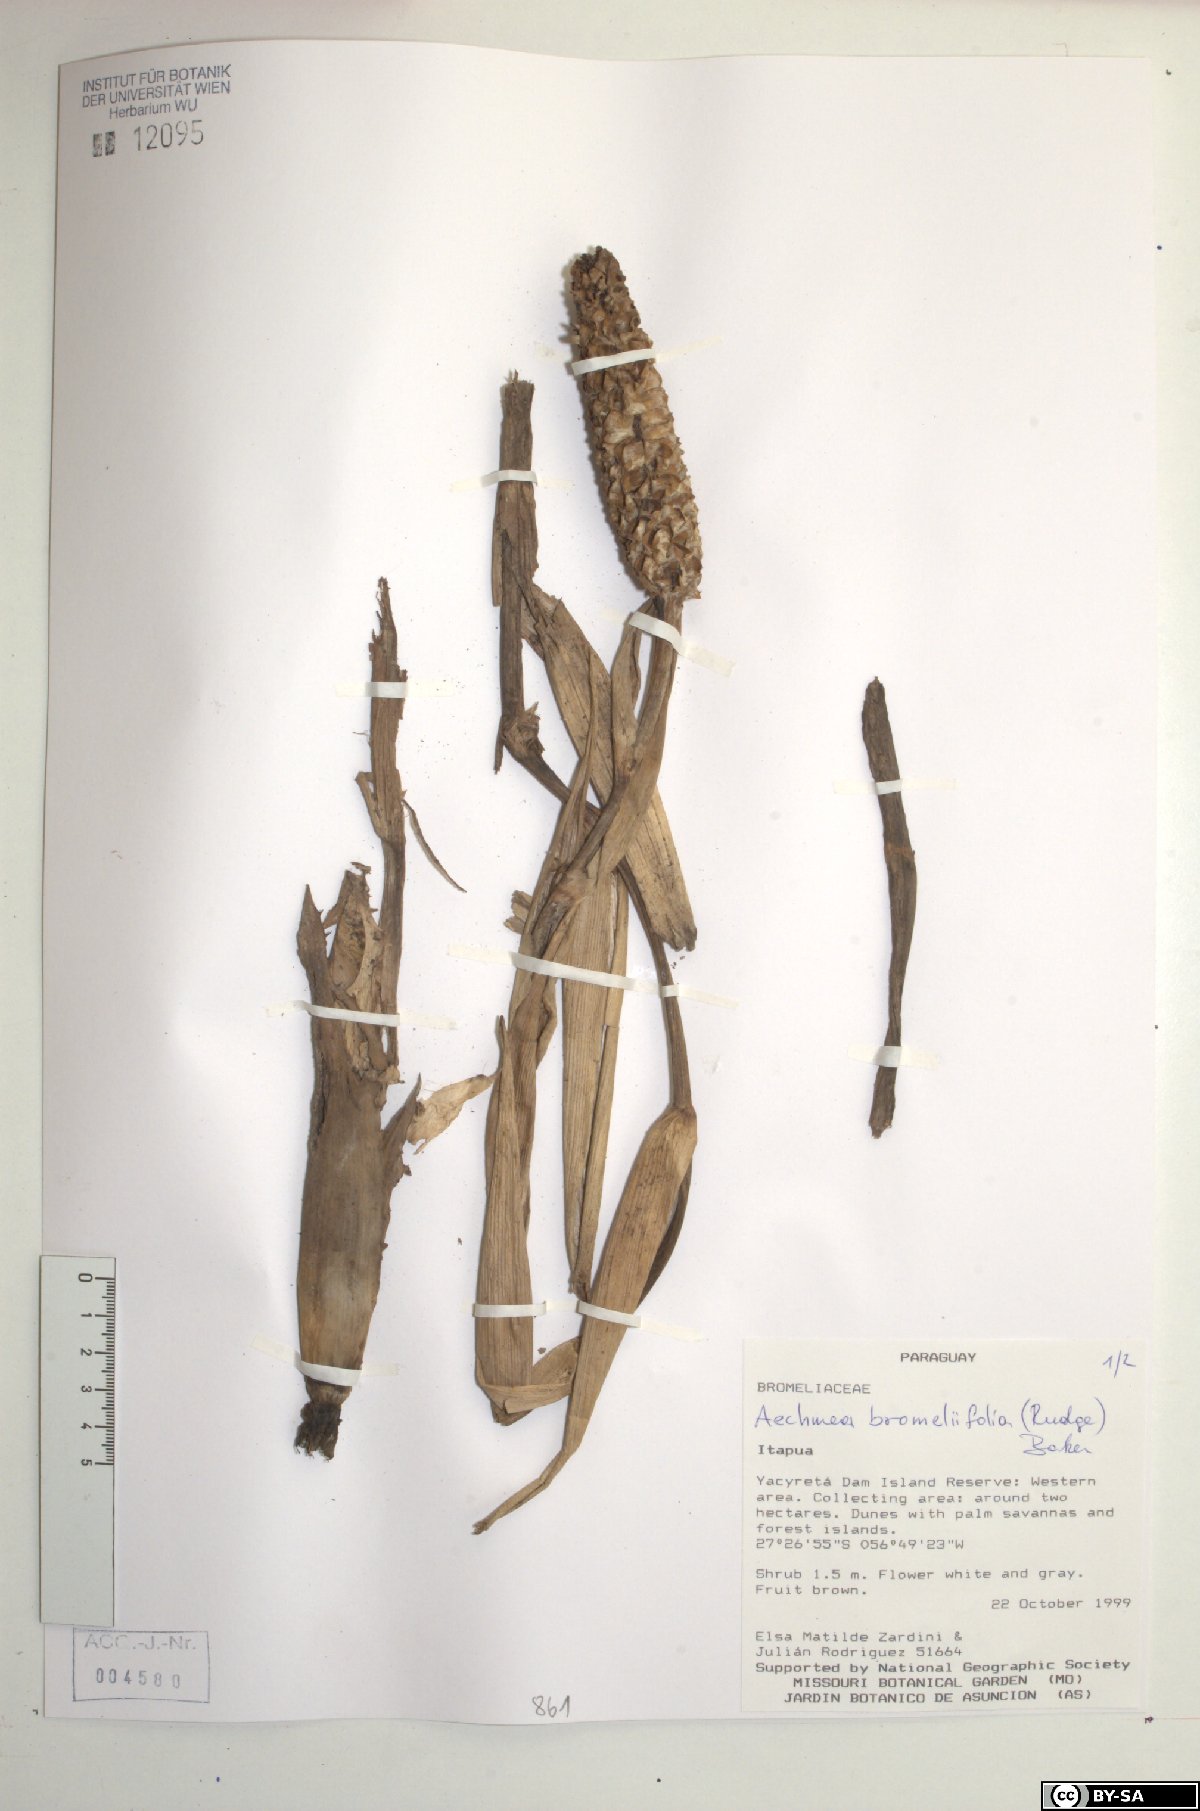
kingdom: Plantae
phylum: Tracheophyta
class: Liliopsida
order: Poales
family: Bromeliaceae
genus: Aechmea
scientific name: Aechmea bromeliifolia
